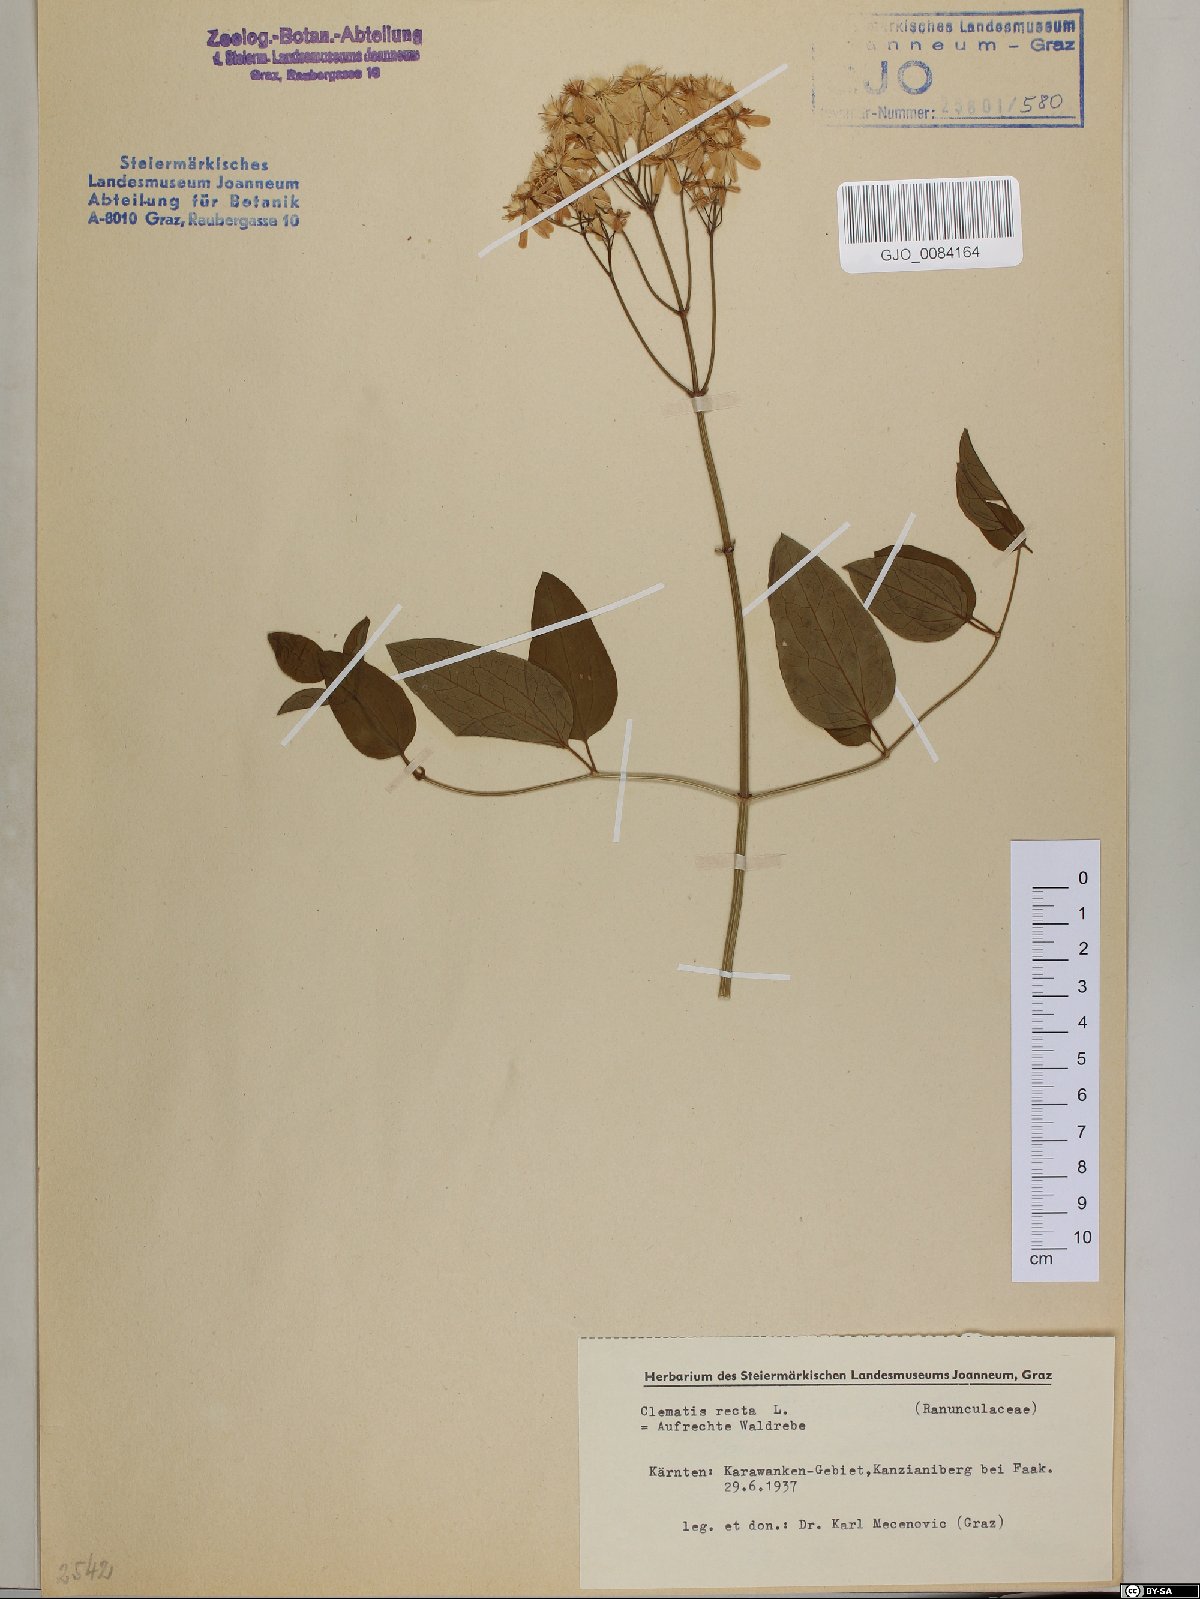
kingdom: Plantae
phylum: Tracheophyta
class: Magnoliopsida
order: Ranunculales
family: Ranunculaceae
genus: Clematis
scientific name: Clematis recta
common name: Ground clematis
